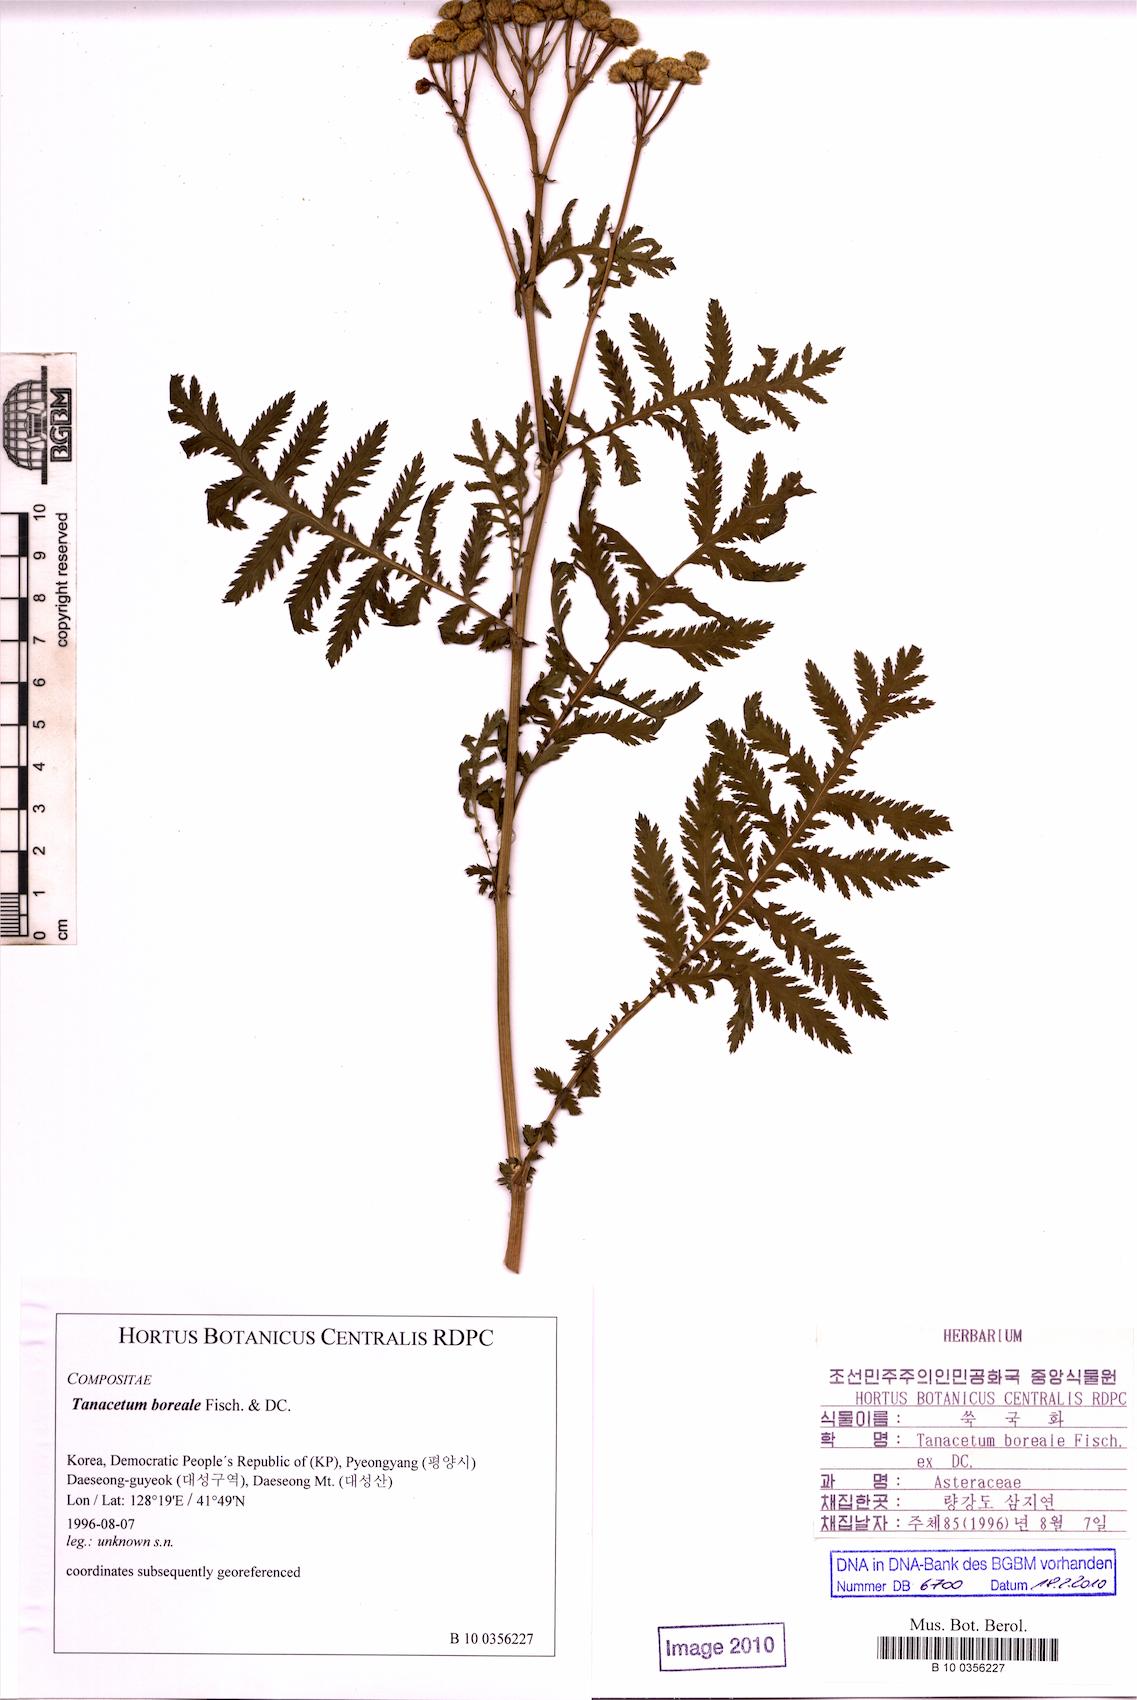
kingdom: Plantae
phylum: Tracheophyta
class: Magnoliopsida
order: Asterales
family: Asteraceae
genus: Tanacetum
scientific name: Tanacetum boreale
